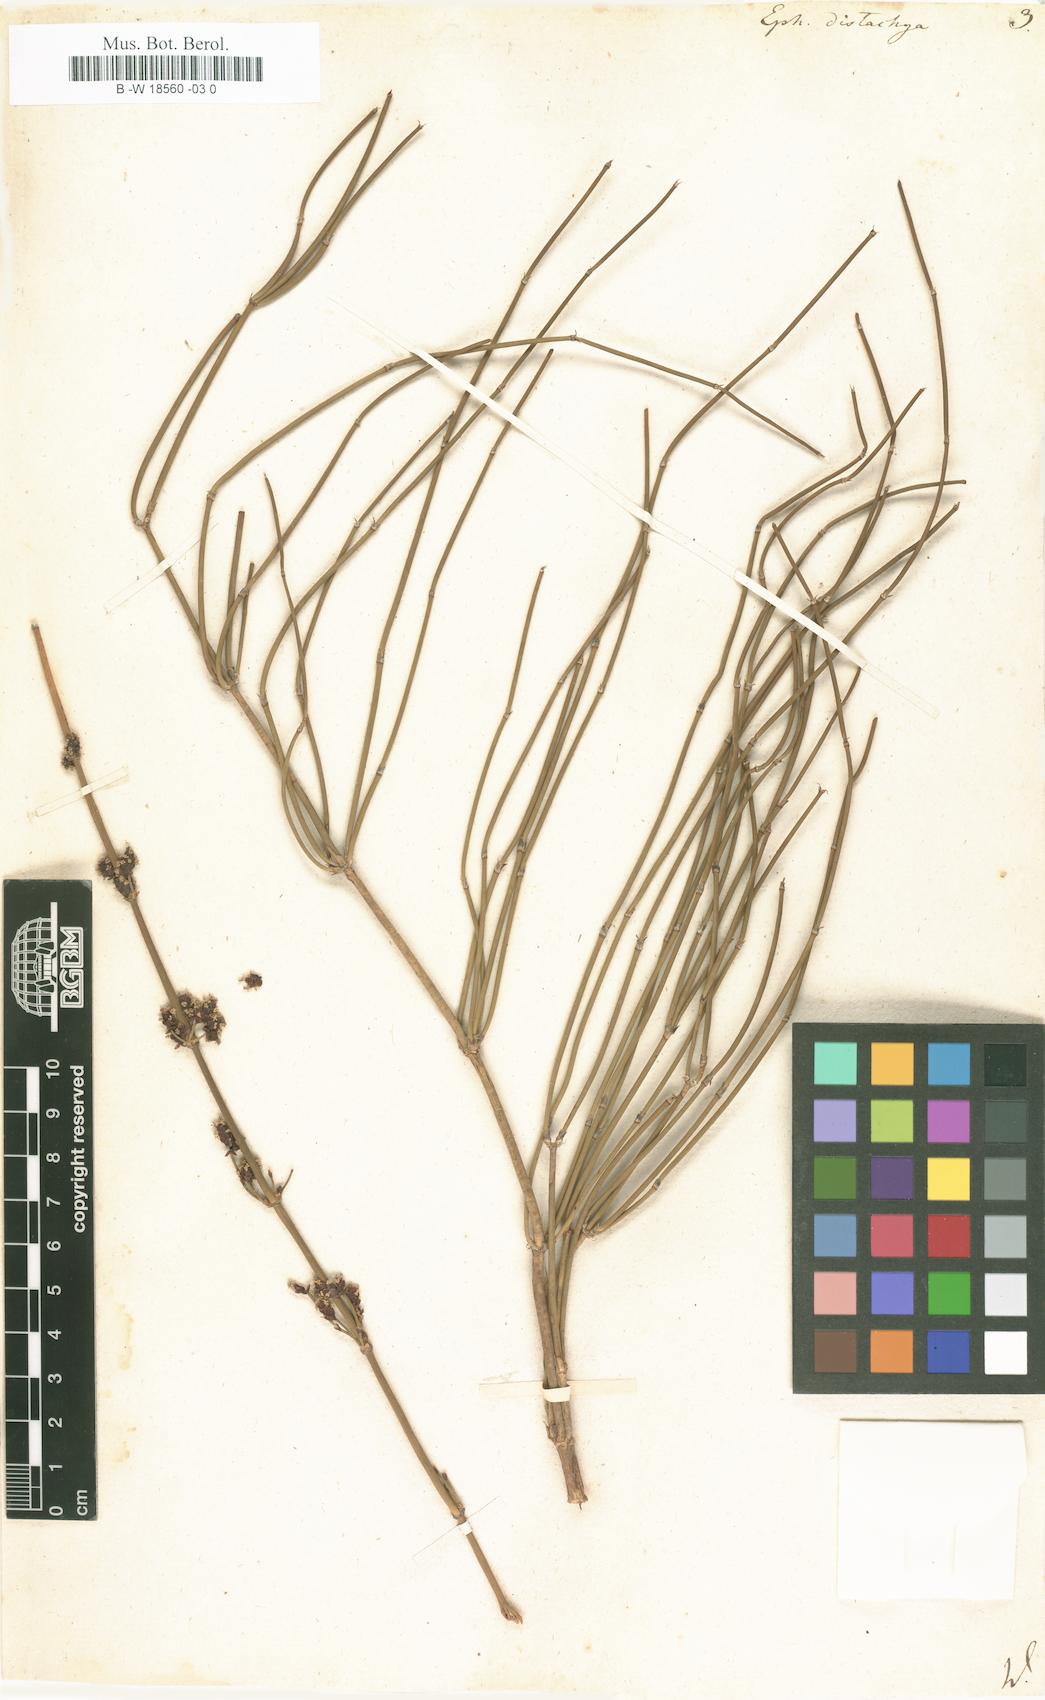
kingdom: Plantae
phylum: Tracheophyta
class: Gnetopsida
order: Ephedrales
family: Ephedraceae
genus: Ephedra
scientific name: Ephedra distachya
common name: Sea grape
